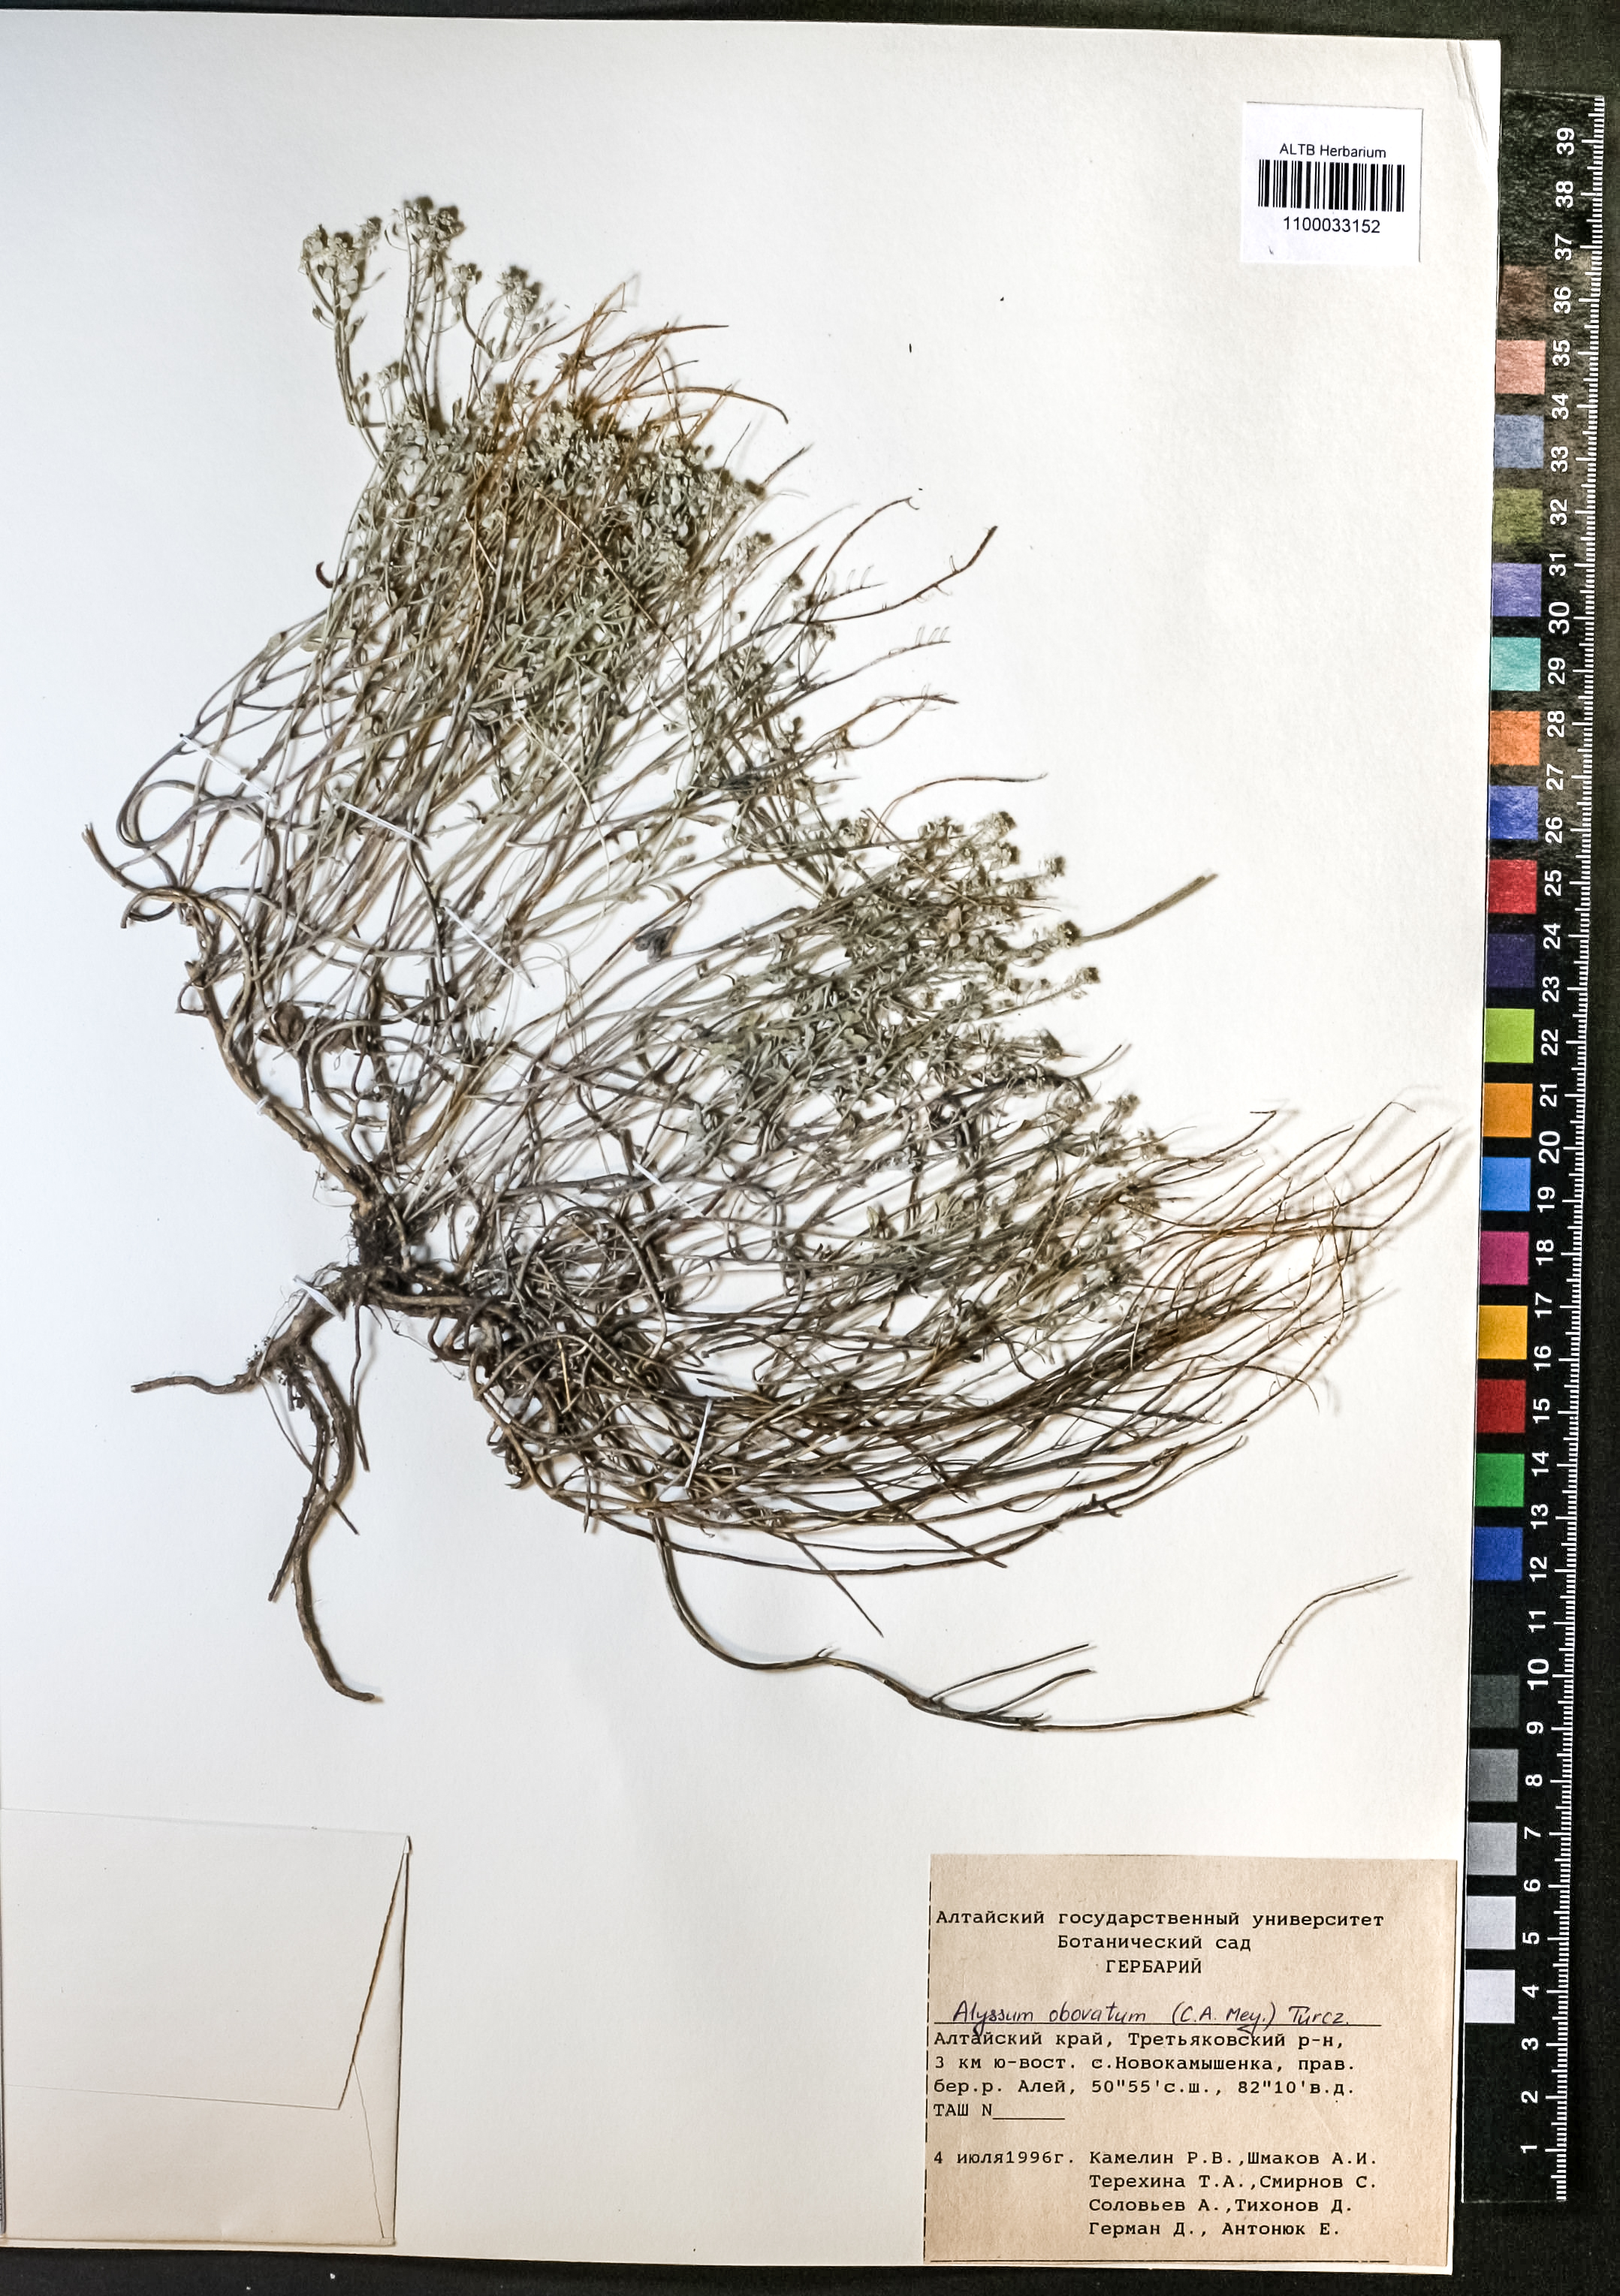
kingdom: Plantae
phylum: Tracheophyta
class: Magnoliopsida
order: Brassicales
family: Brassicaceae
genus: Odontarrhena
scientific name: Odontarrhena obovata
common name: American alyssum
